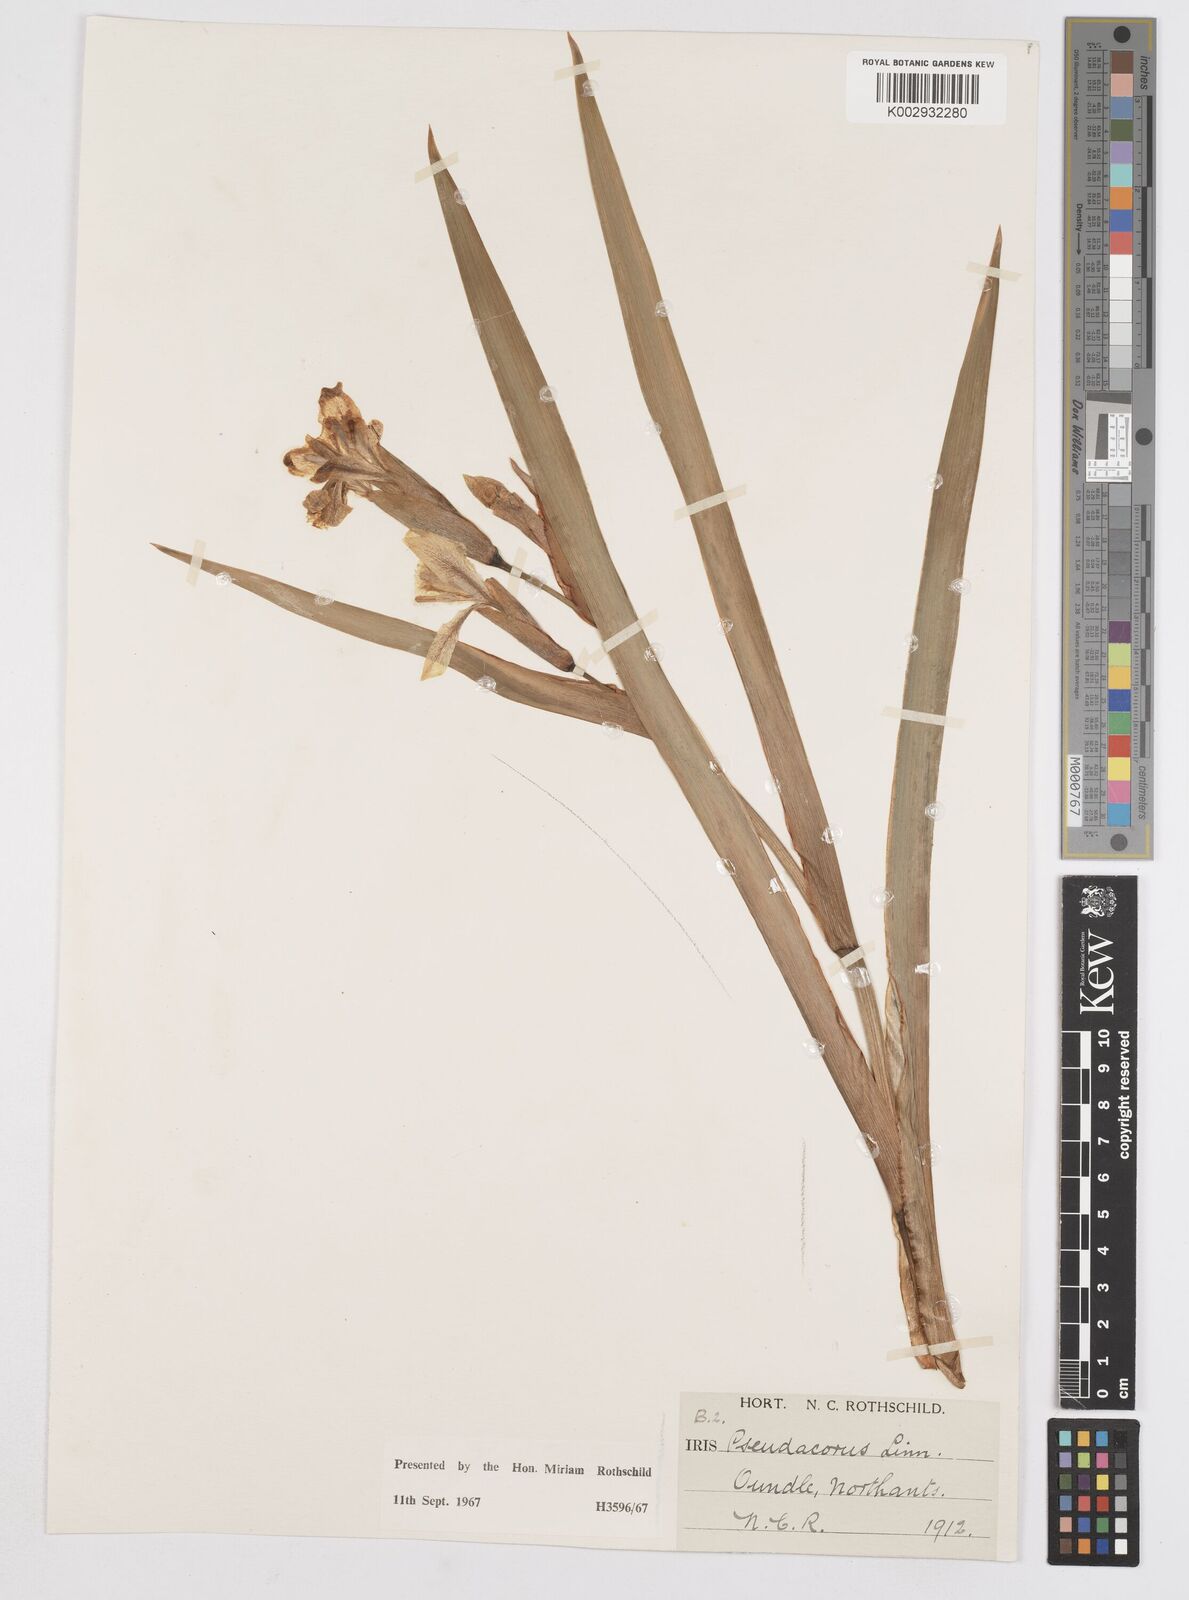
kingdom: Plantae
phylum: Tracheophyta
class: Liliopsida
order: Asparagales
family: Iridaceae
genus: Iris
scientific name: Iris
